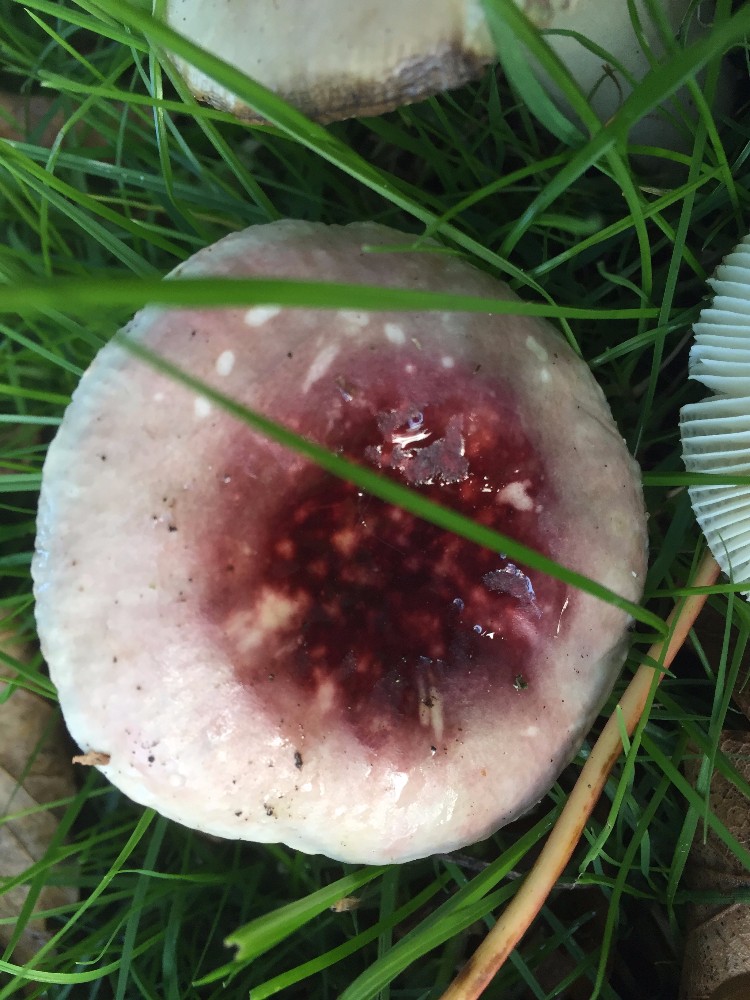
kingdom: Fungi
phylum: Basidiomycota
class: Agaricomycetes
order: Russulales
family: Russulaceae
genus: Russula
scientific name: Russula
